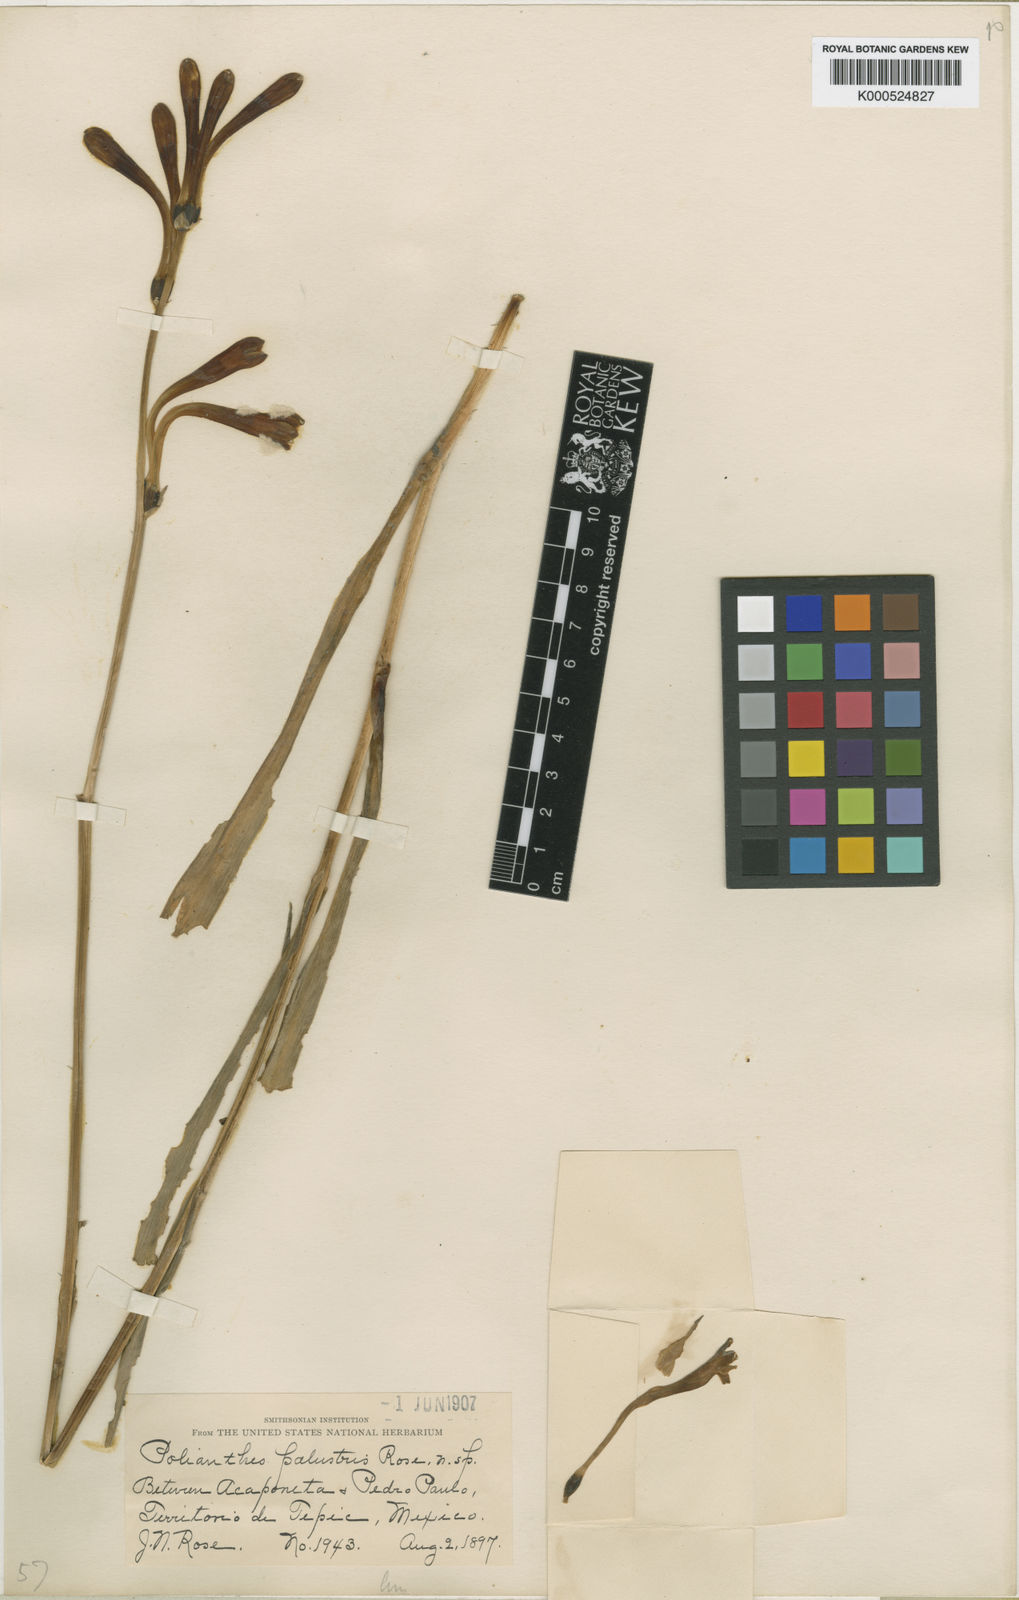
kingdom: Plantae
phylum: Tracheophyta
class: Liliopsida
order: Asparagales
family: Asparagaceae
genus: Agave
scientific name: Agave palustris
